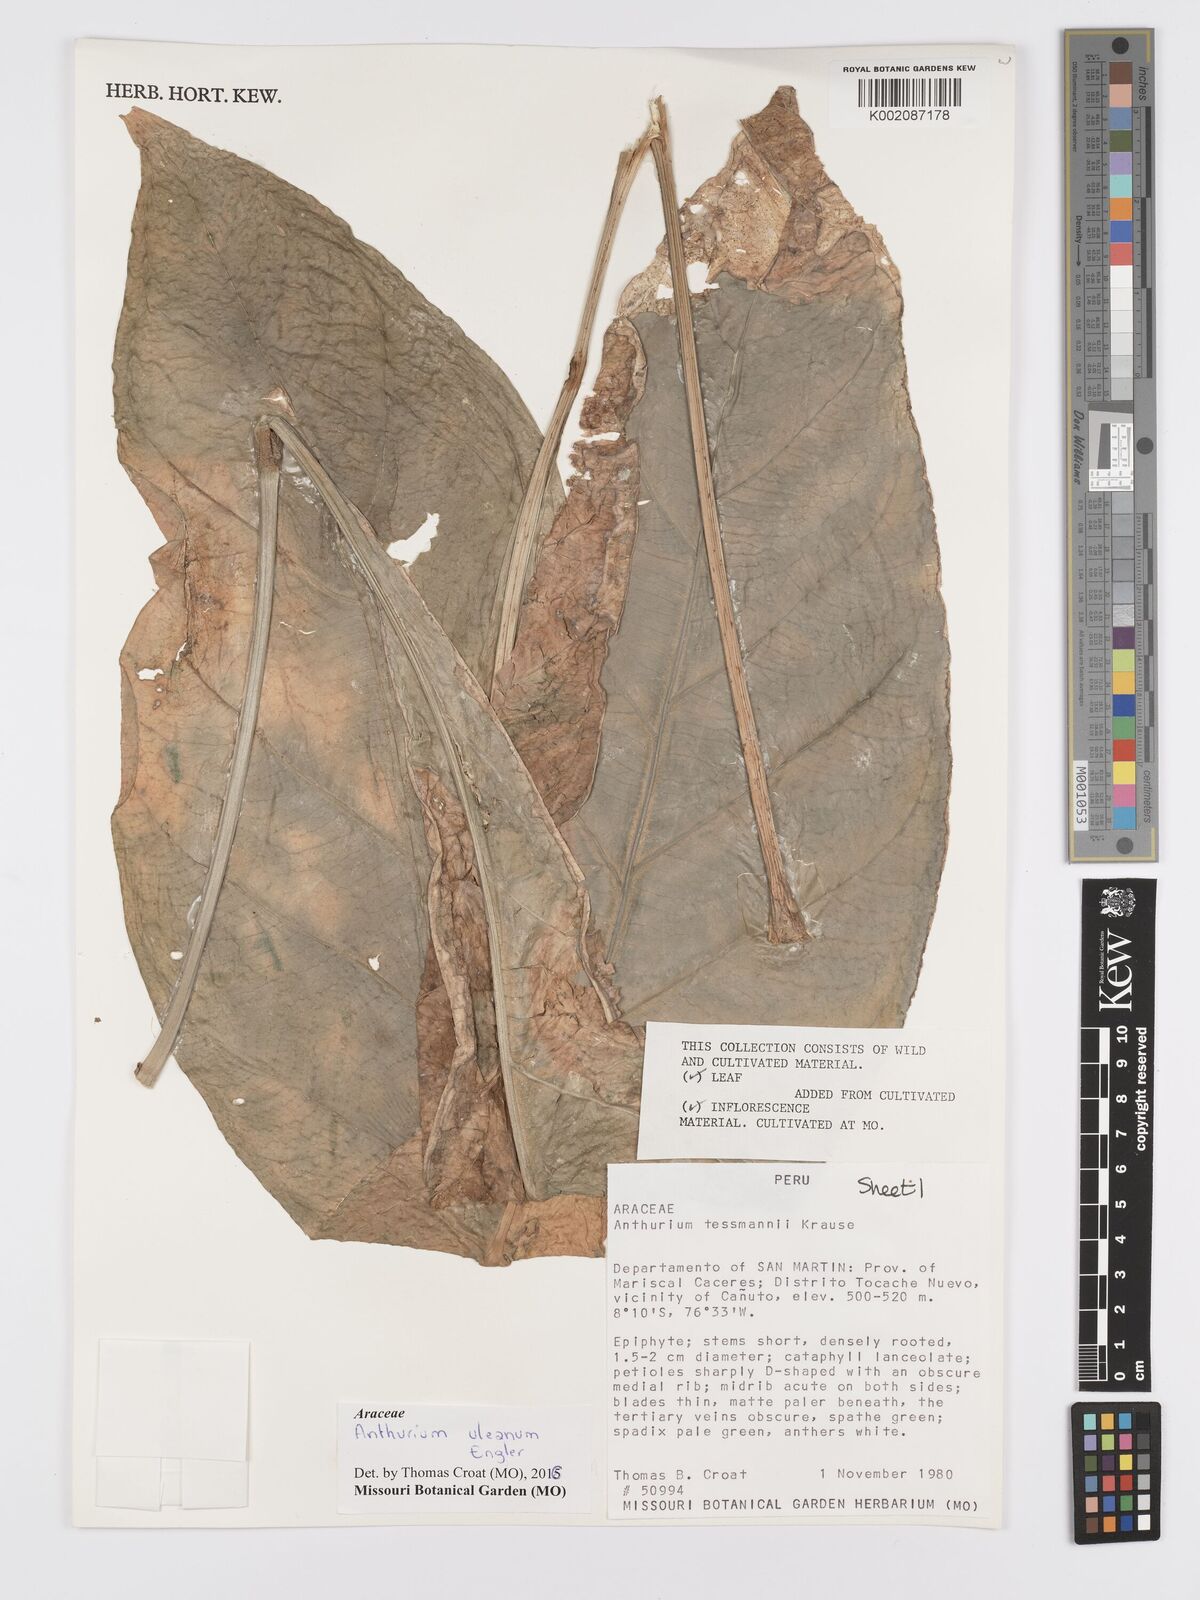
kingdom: Plantae
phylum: Tracheophyta
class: Liliopsida
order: Alismatales
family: Araceae
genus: Anthurium
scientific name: Anthurium uleanum
